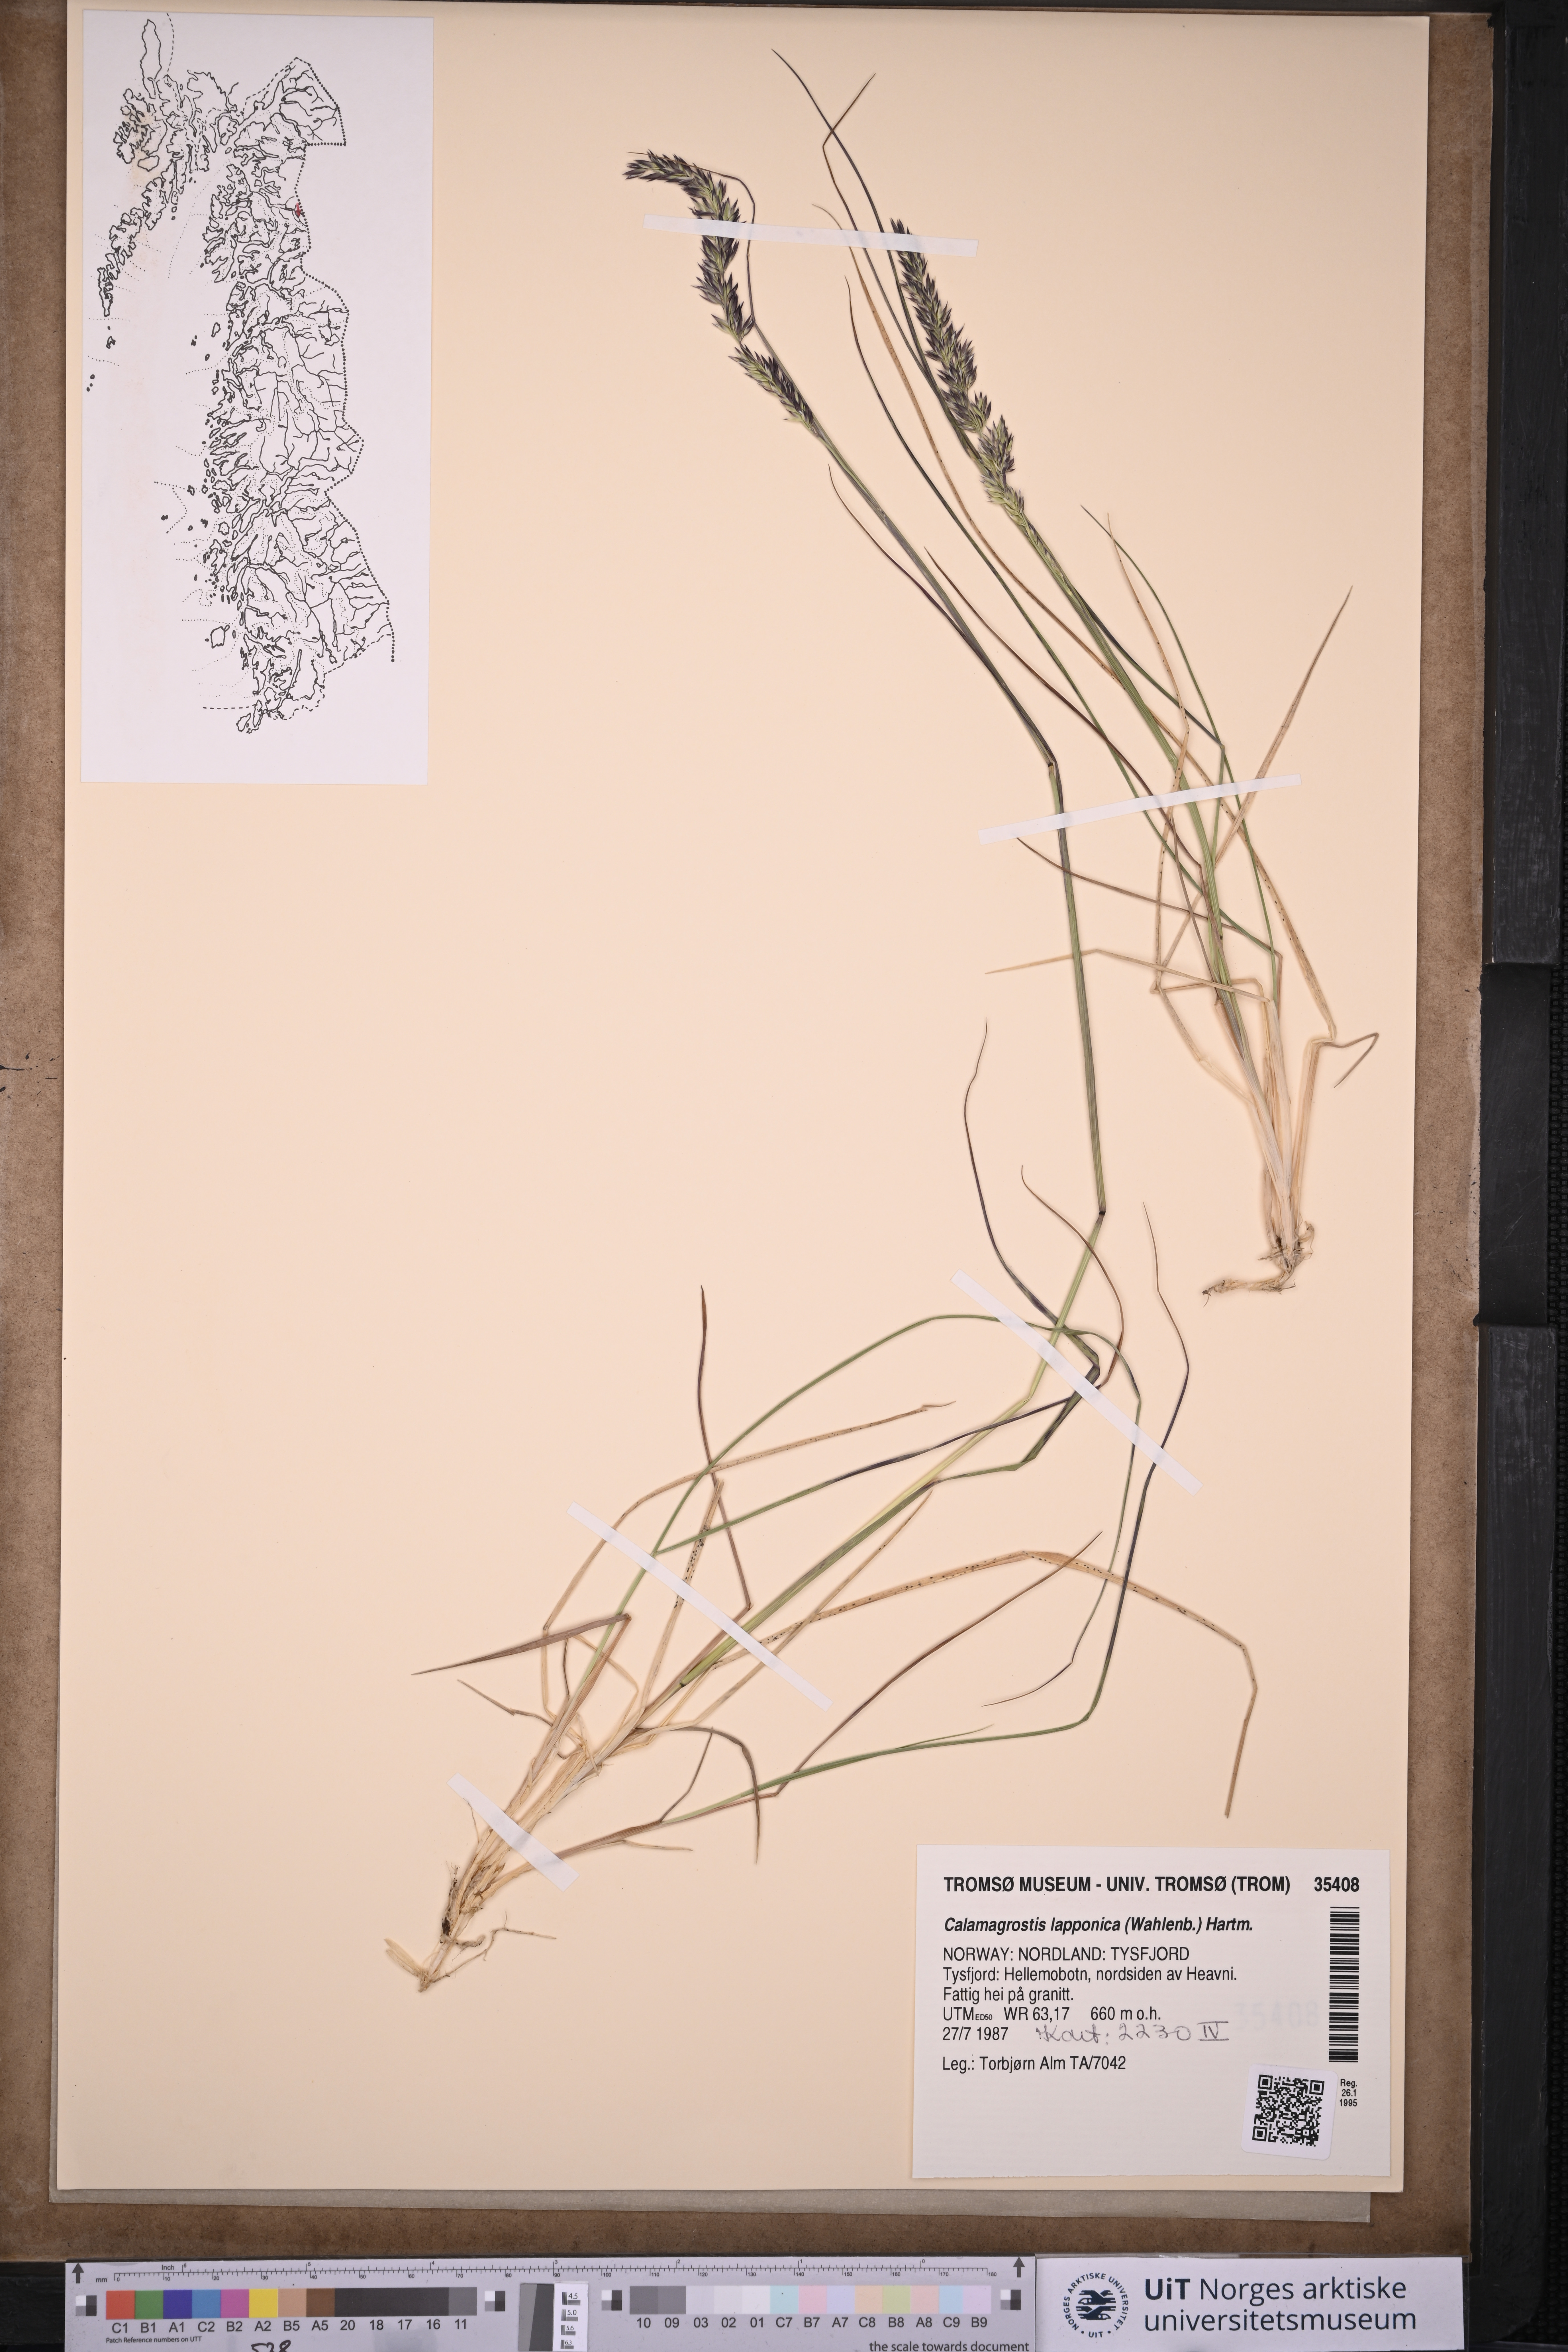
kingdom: Plantae
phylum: Tracheophyta
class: Liliopsida
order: Poales
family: Poaceae
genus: Calamagrostis
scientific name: Calamagrostis lapponica
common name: Lapland reedgrass
